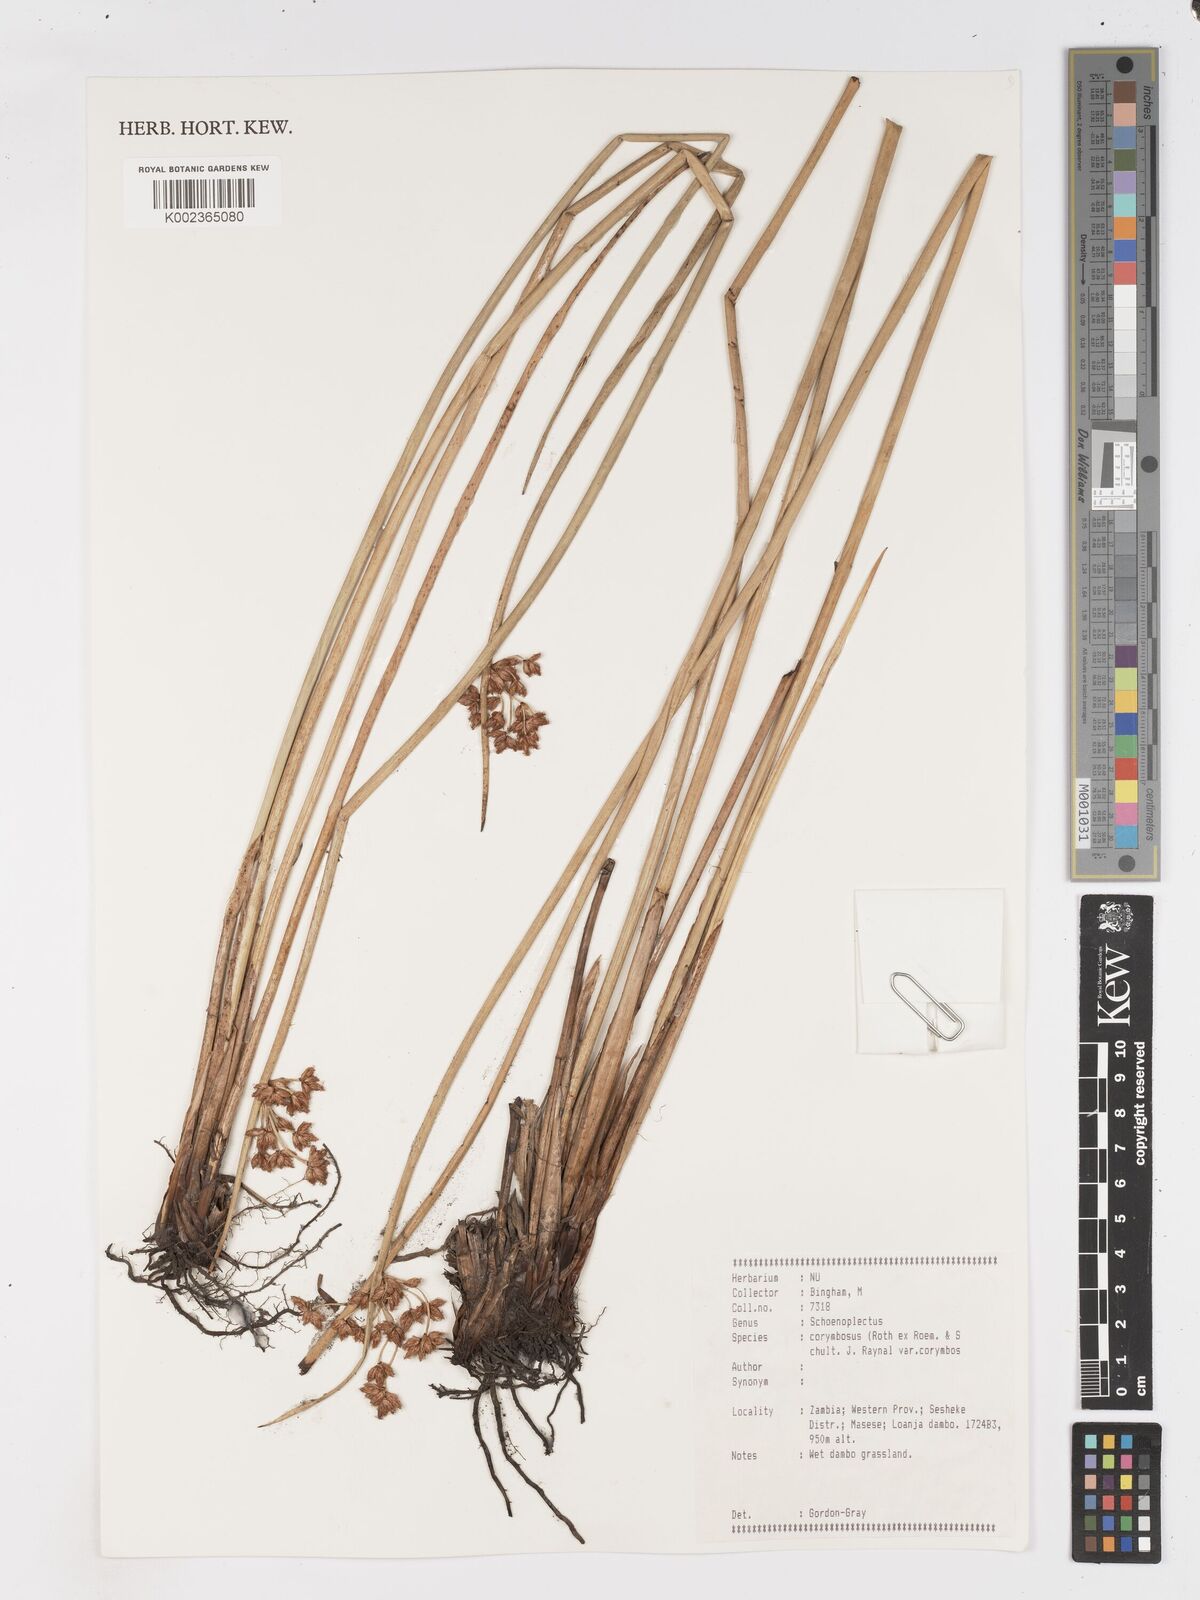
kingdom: Plantae
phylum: Tracheophyta
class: Liliopsida
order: Poales
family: Cyperaceae
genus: Schoenoplectiella
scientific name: Schoenoplectiella corymbosa
